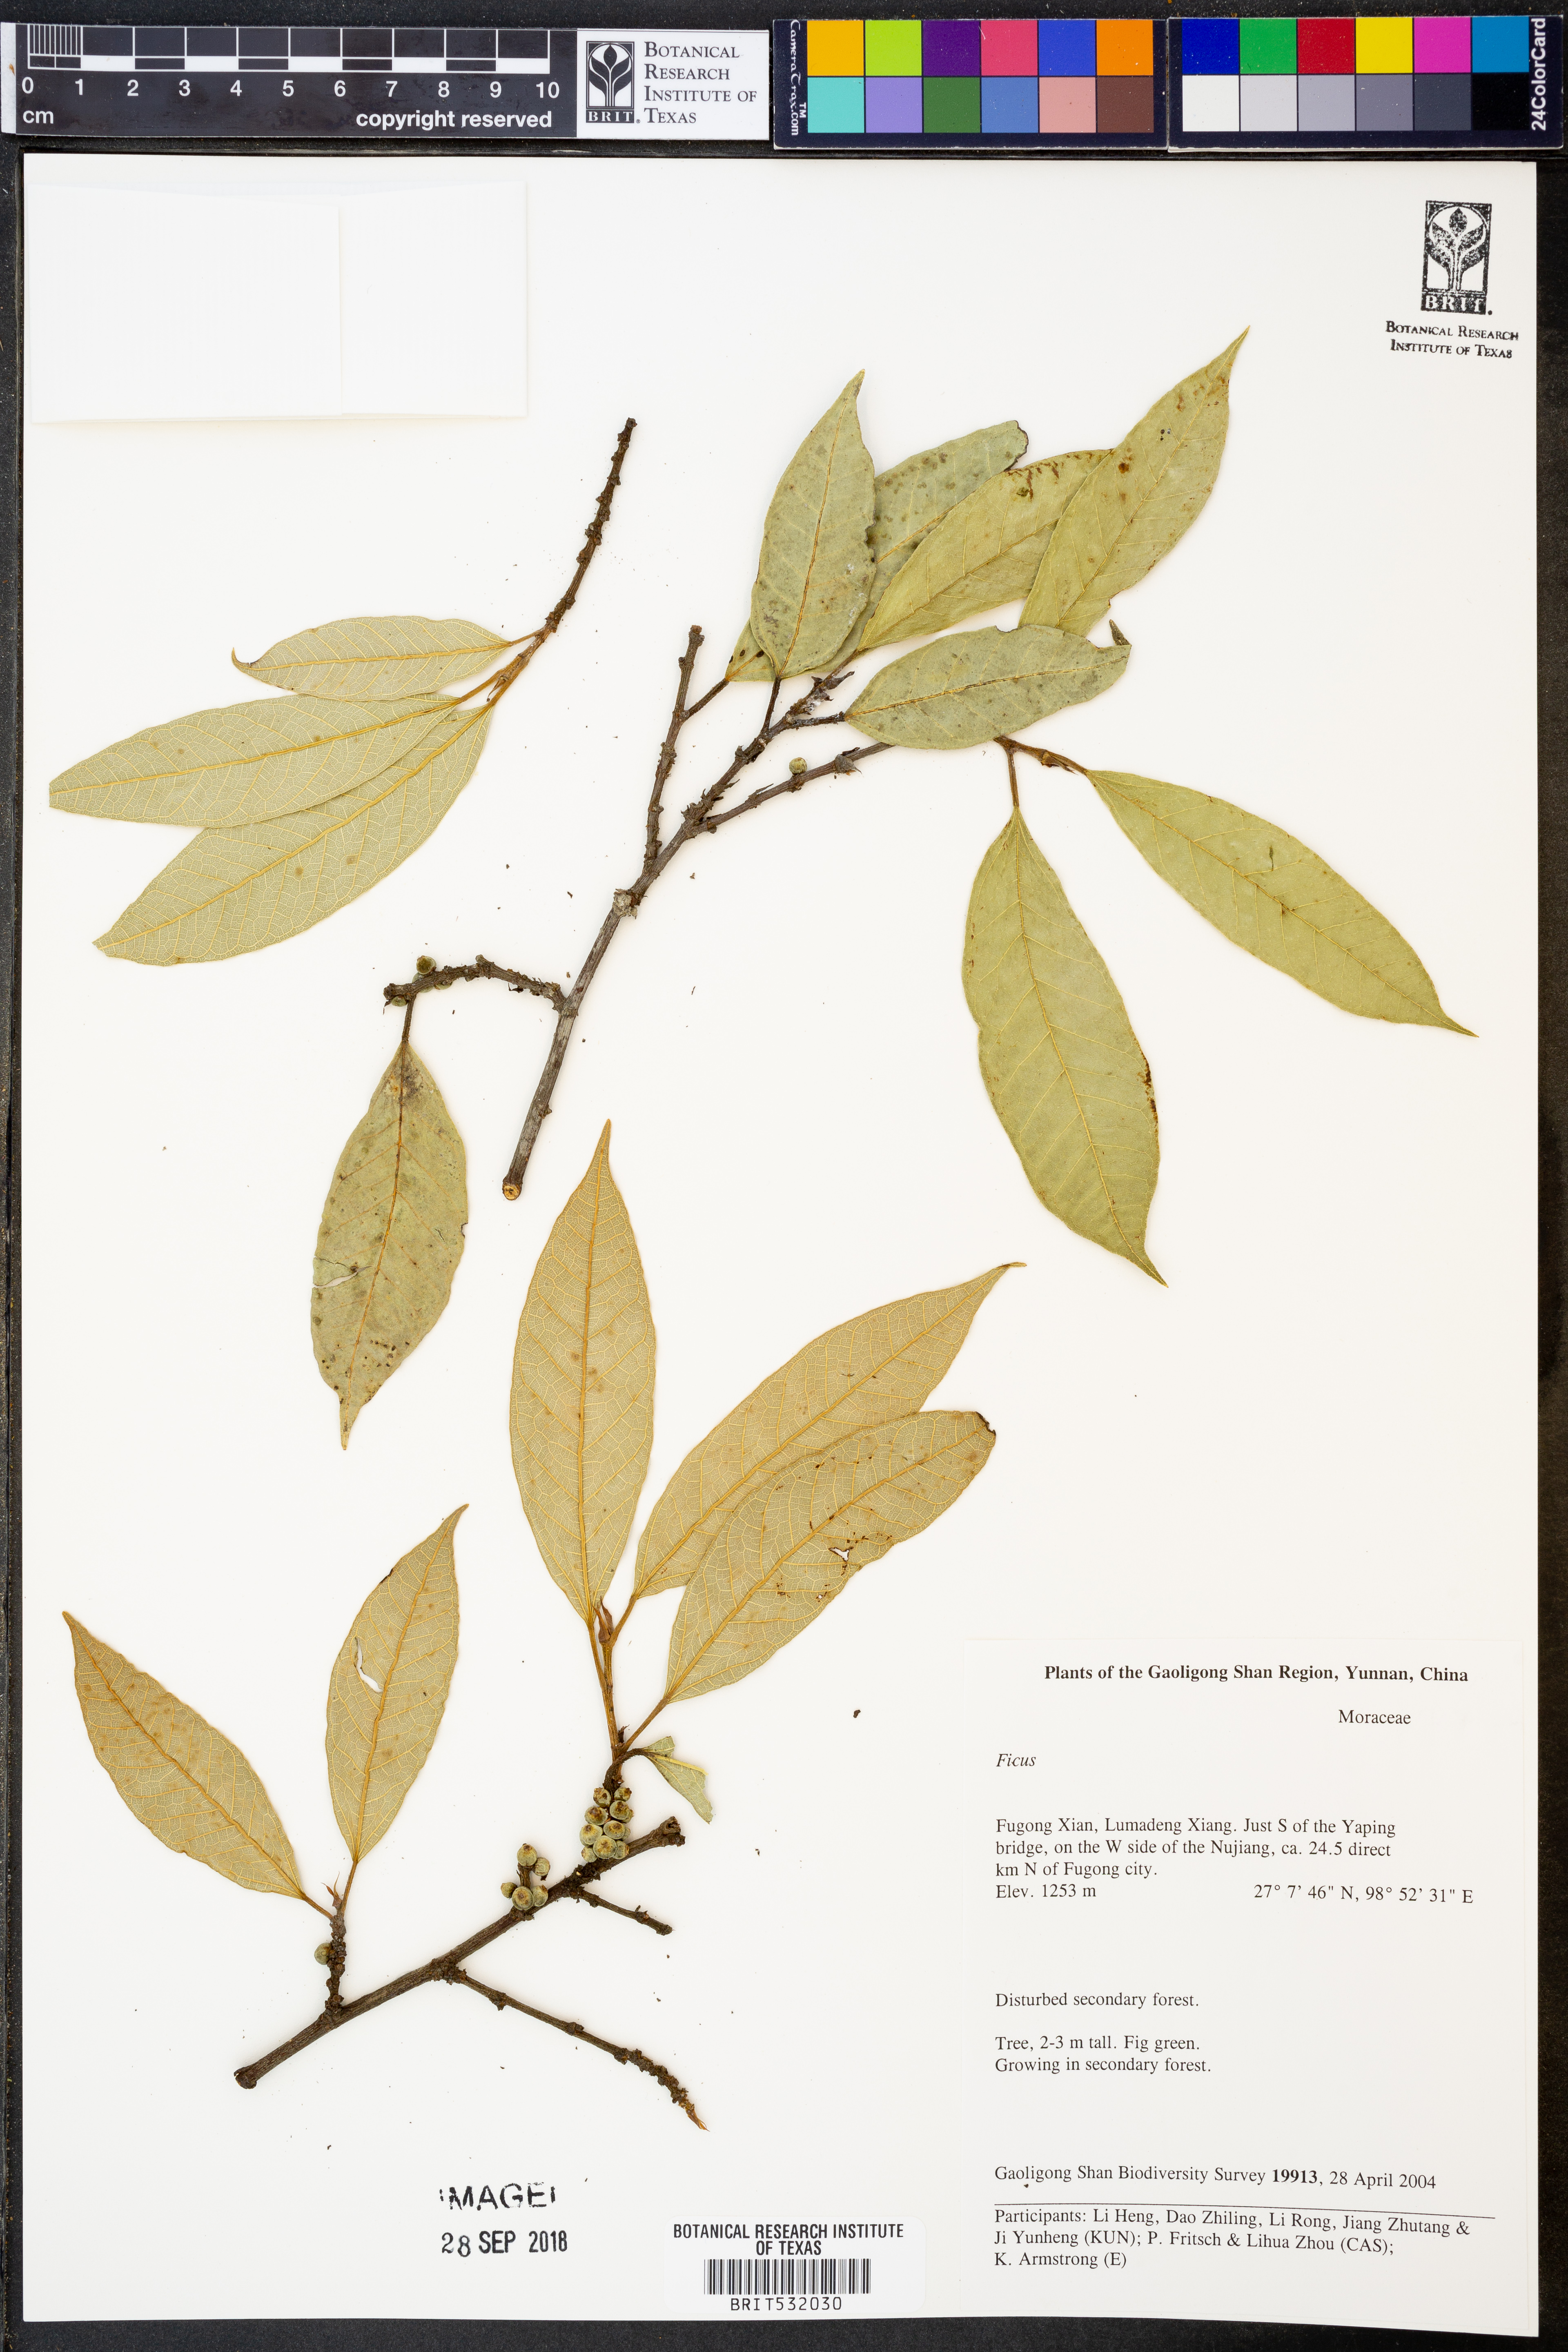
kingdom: Plantae
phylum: Tracheophyta
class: Magnoliopsida
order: Rosales
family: Moraceae
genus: Ficus
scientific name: Ficus
